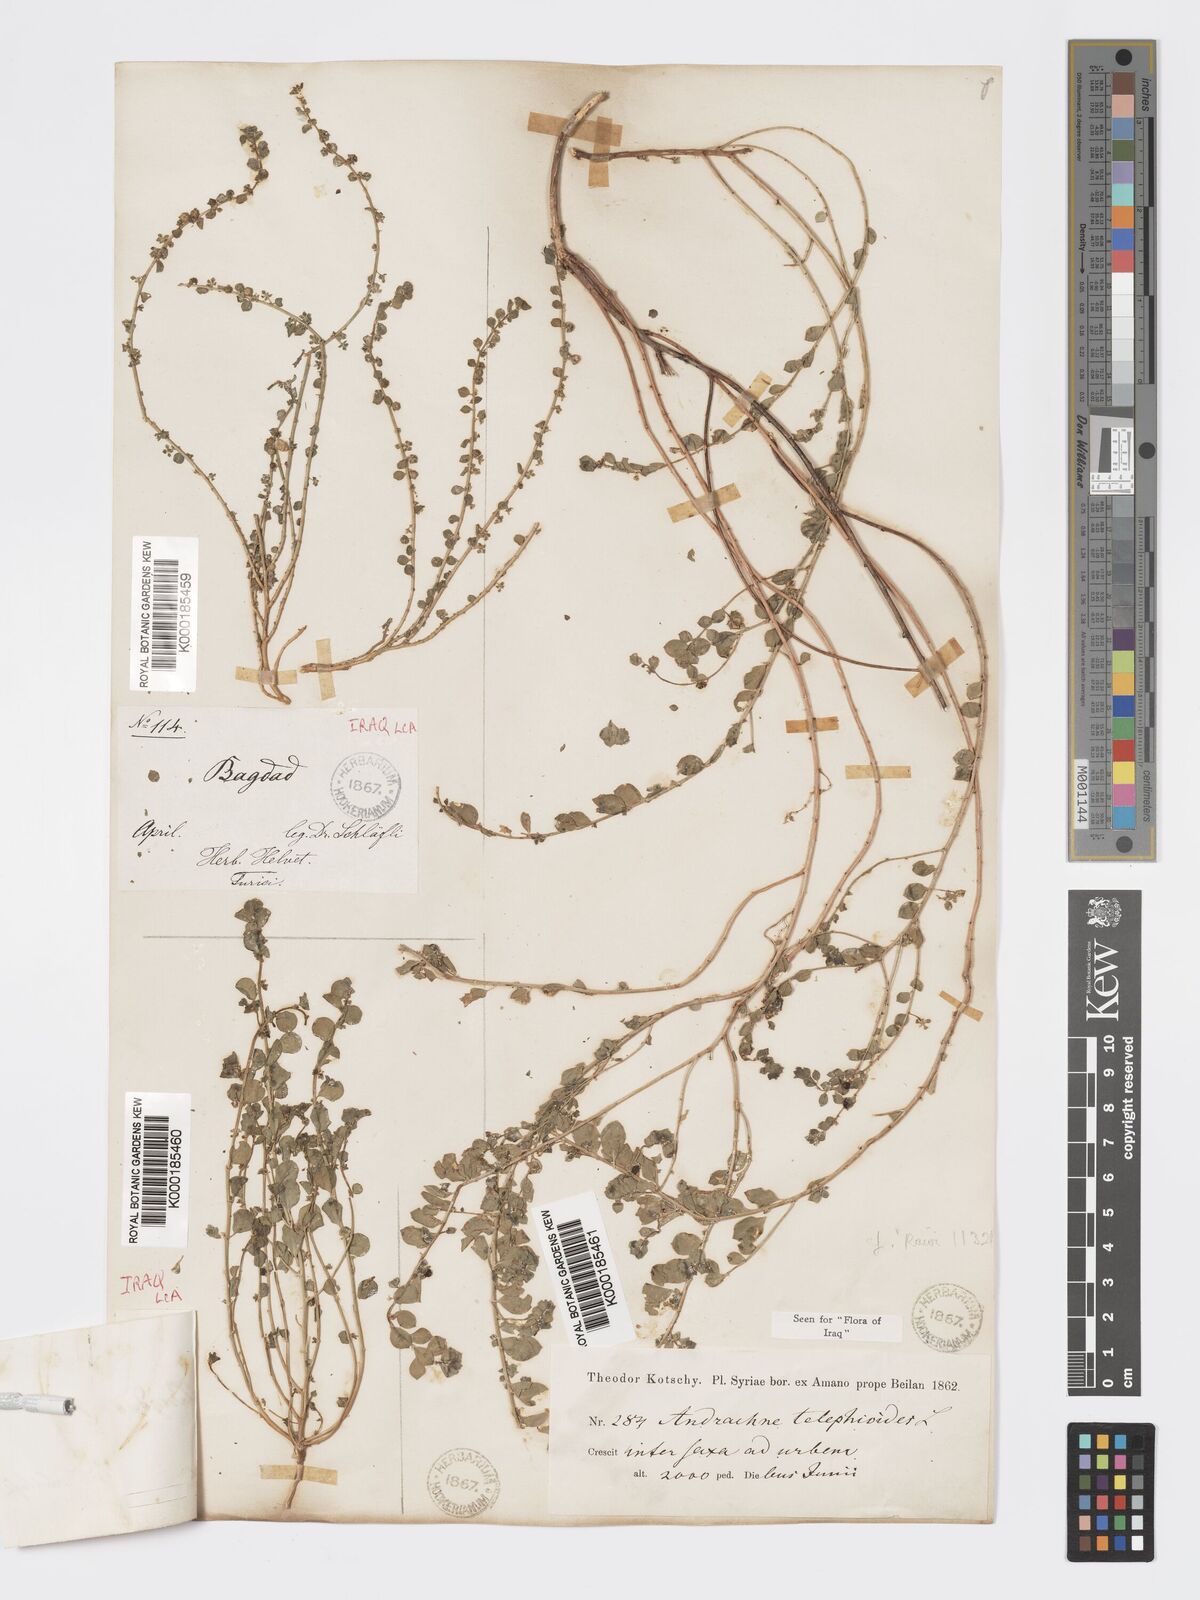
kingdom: Plantae
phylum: Tracheophyta
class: Magnoliopsida
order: Malpighiales
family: Phyllanthaceae
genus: Andrachne
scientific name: Andrachne telephioides
